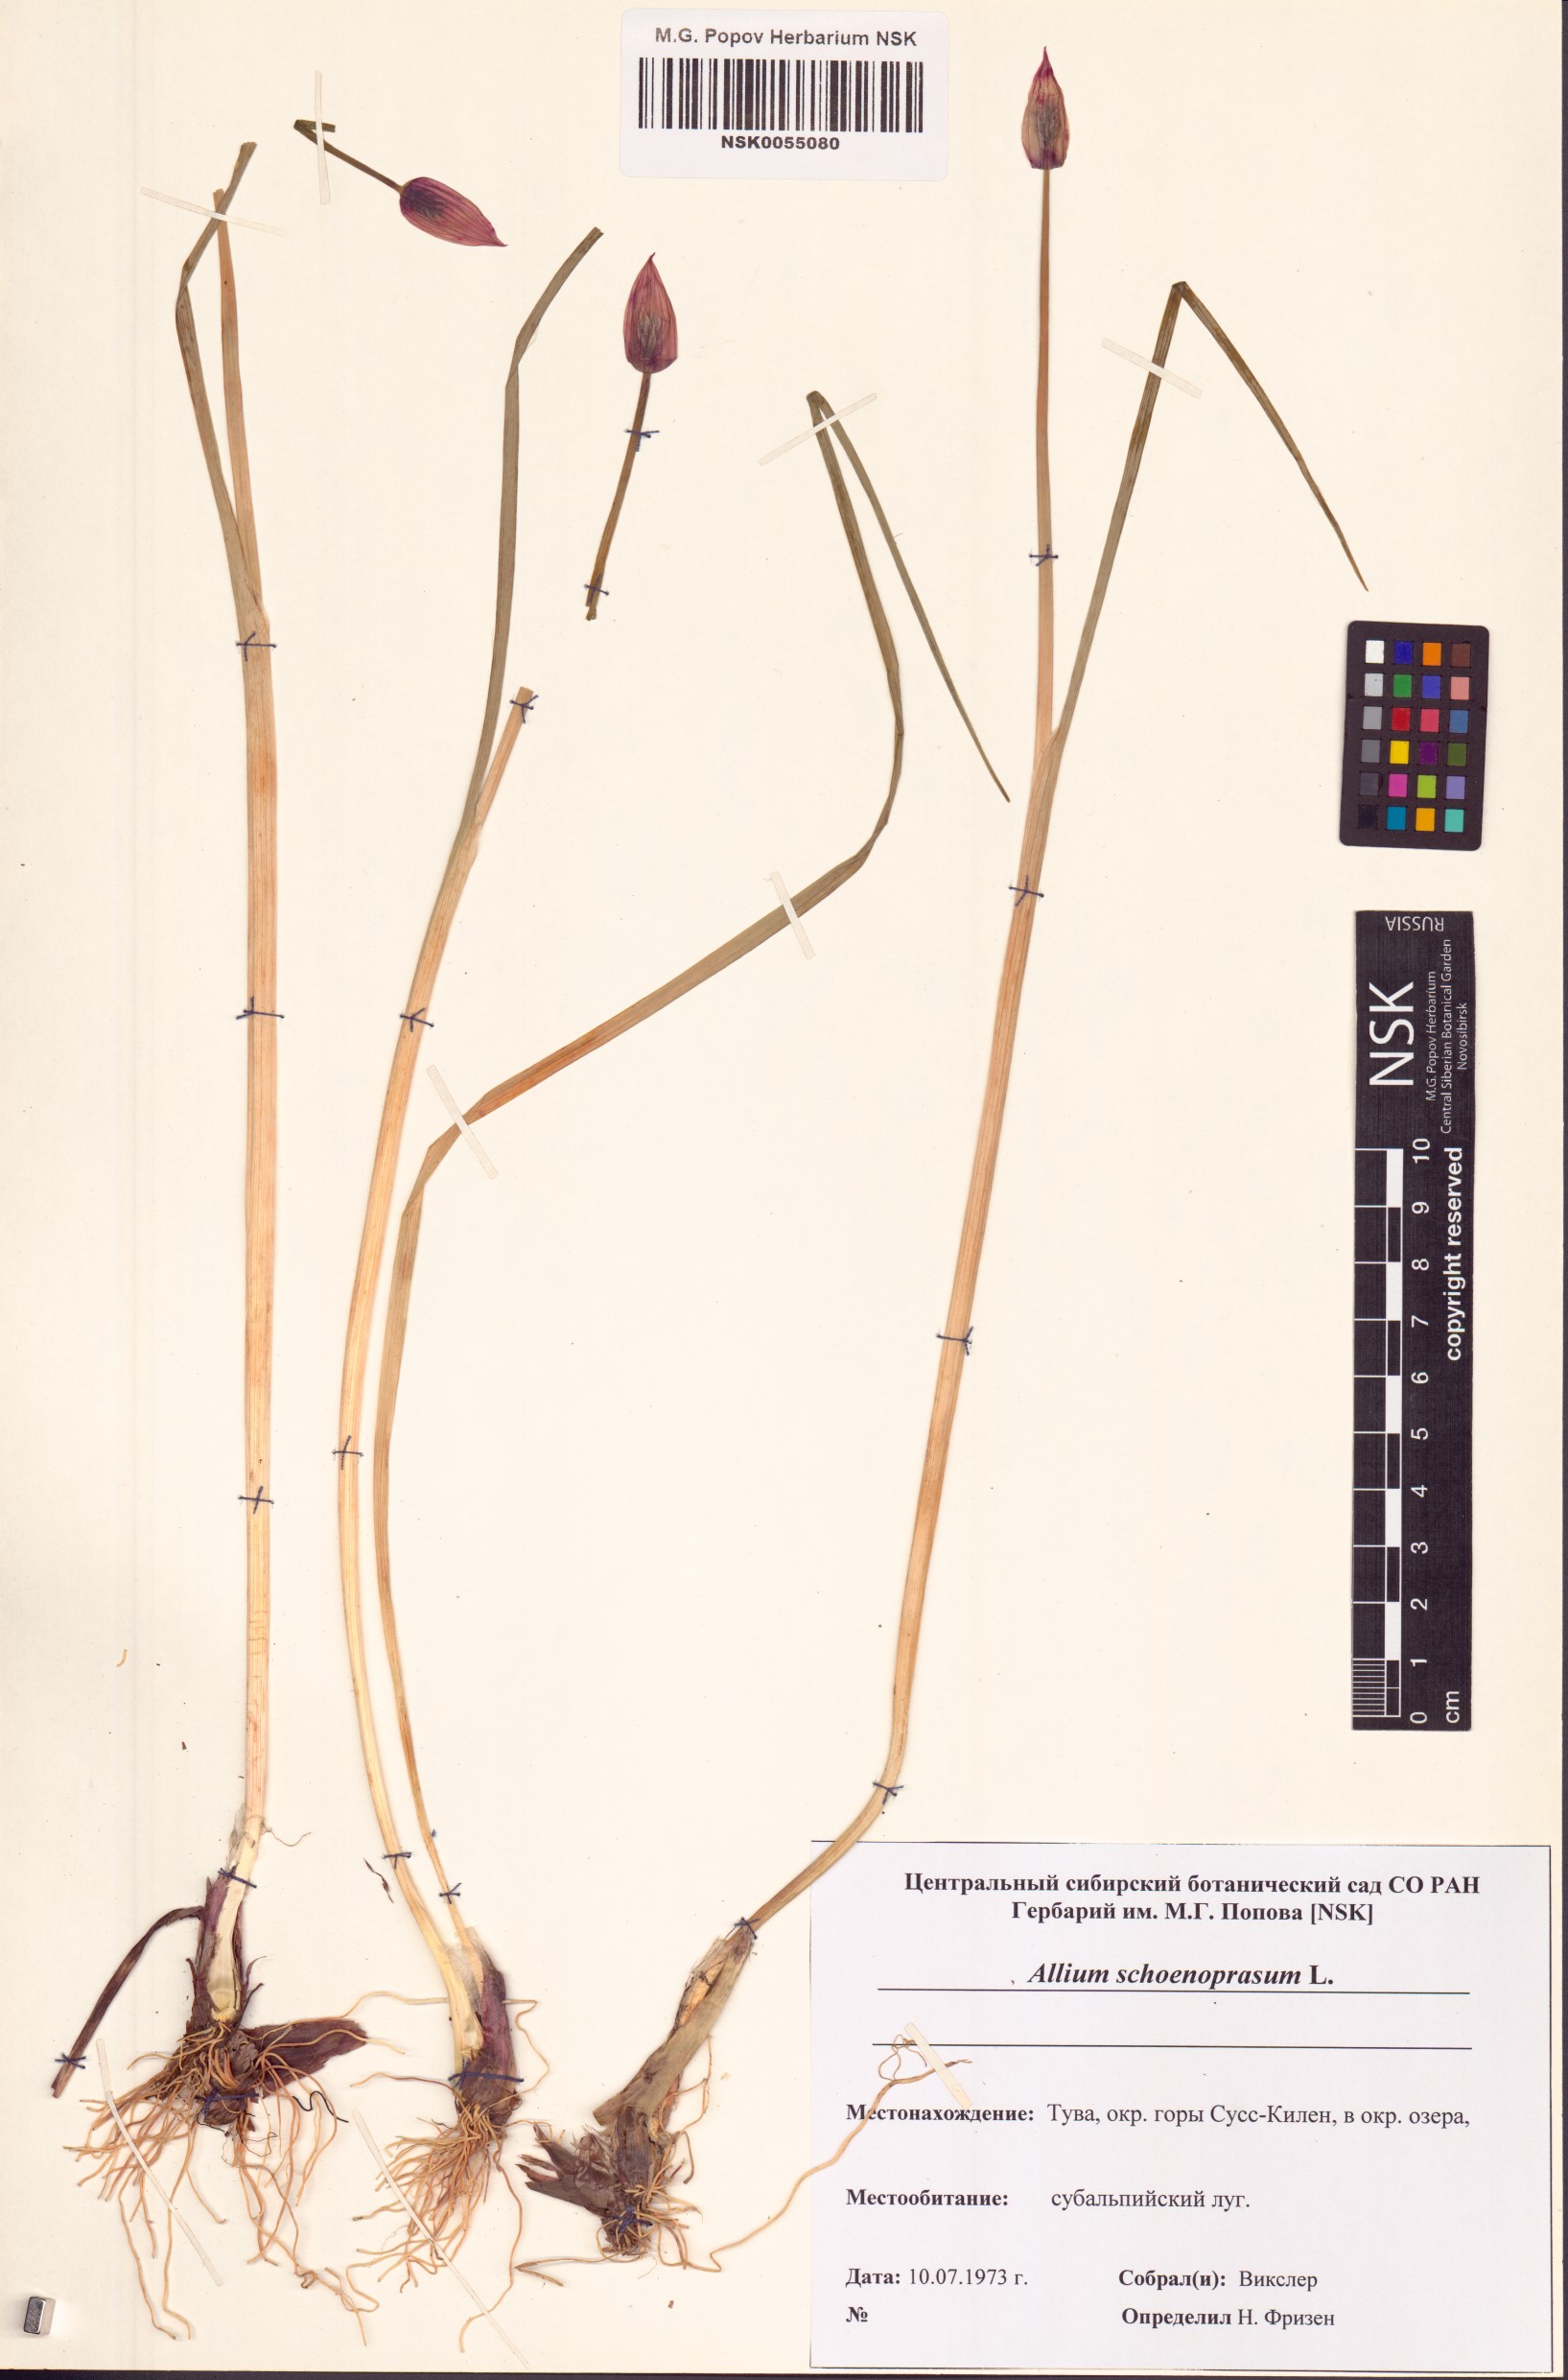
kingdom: Plantae
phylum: Tracheophyta
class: Liliopsida
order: Asparagales
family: Amaryllidaceae
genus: Allium
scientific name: Allium schoenoprasum
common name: Chives
